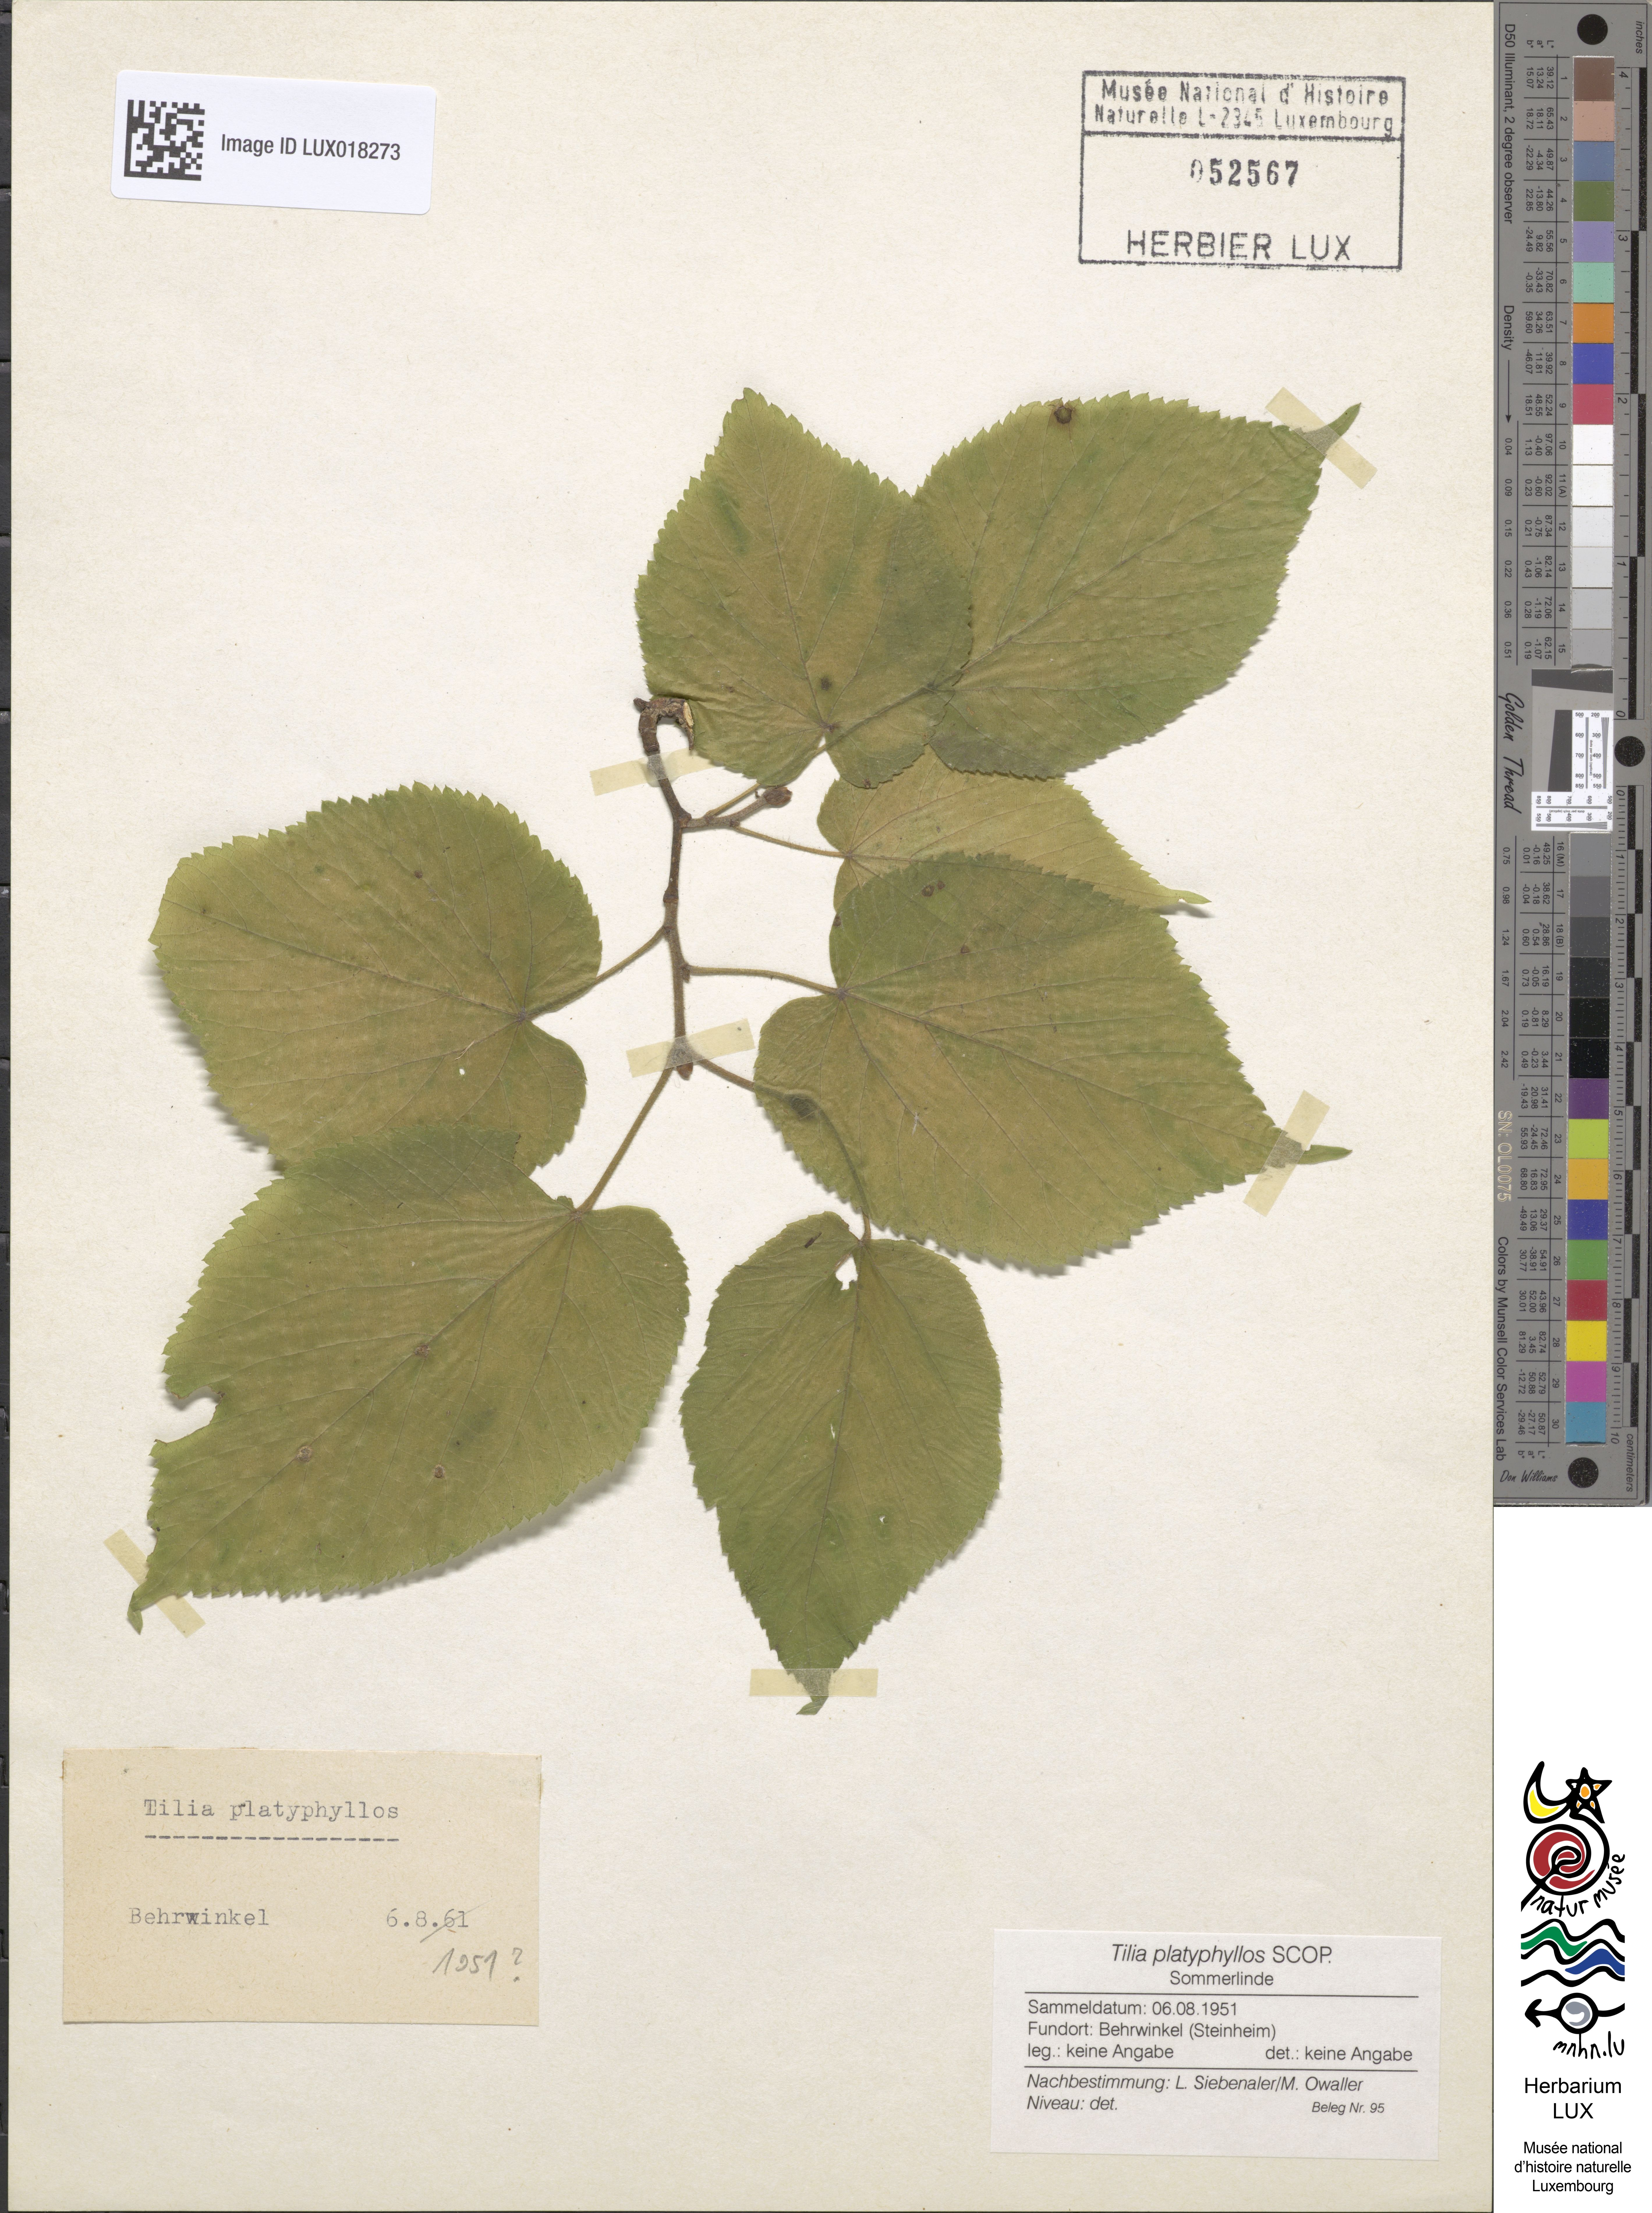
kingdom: Plantae
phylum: Tracheophyta
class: Magnoliopsida
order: Malvales
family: Malvaceae
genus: Tilia
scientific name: Tilia platyphyllos
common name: Large-leaved lime
